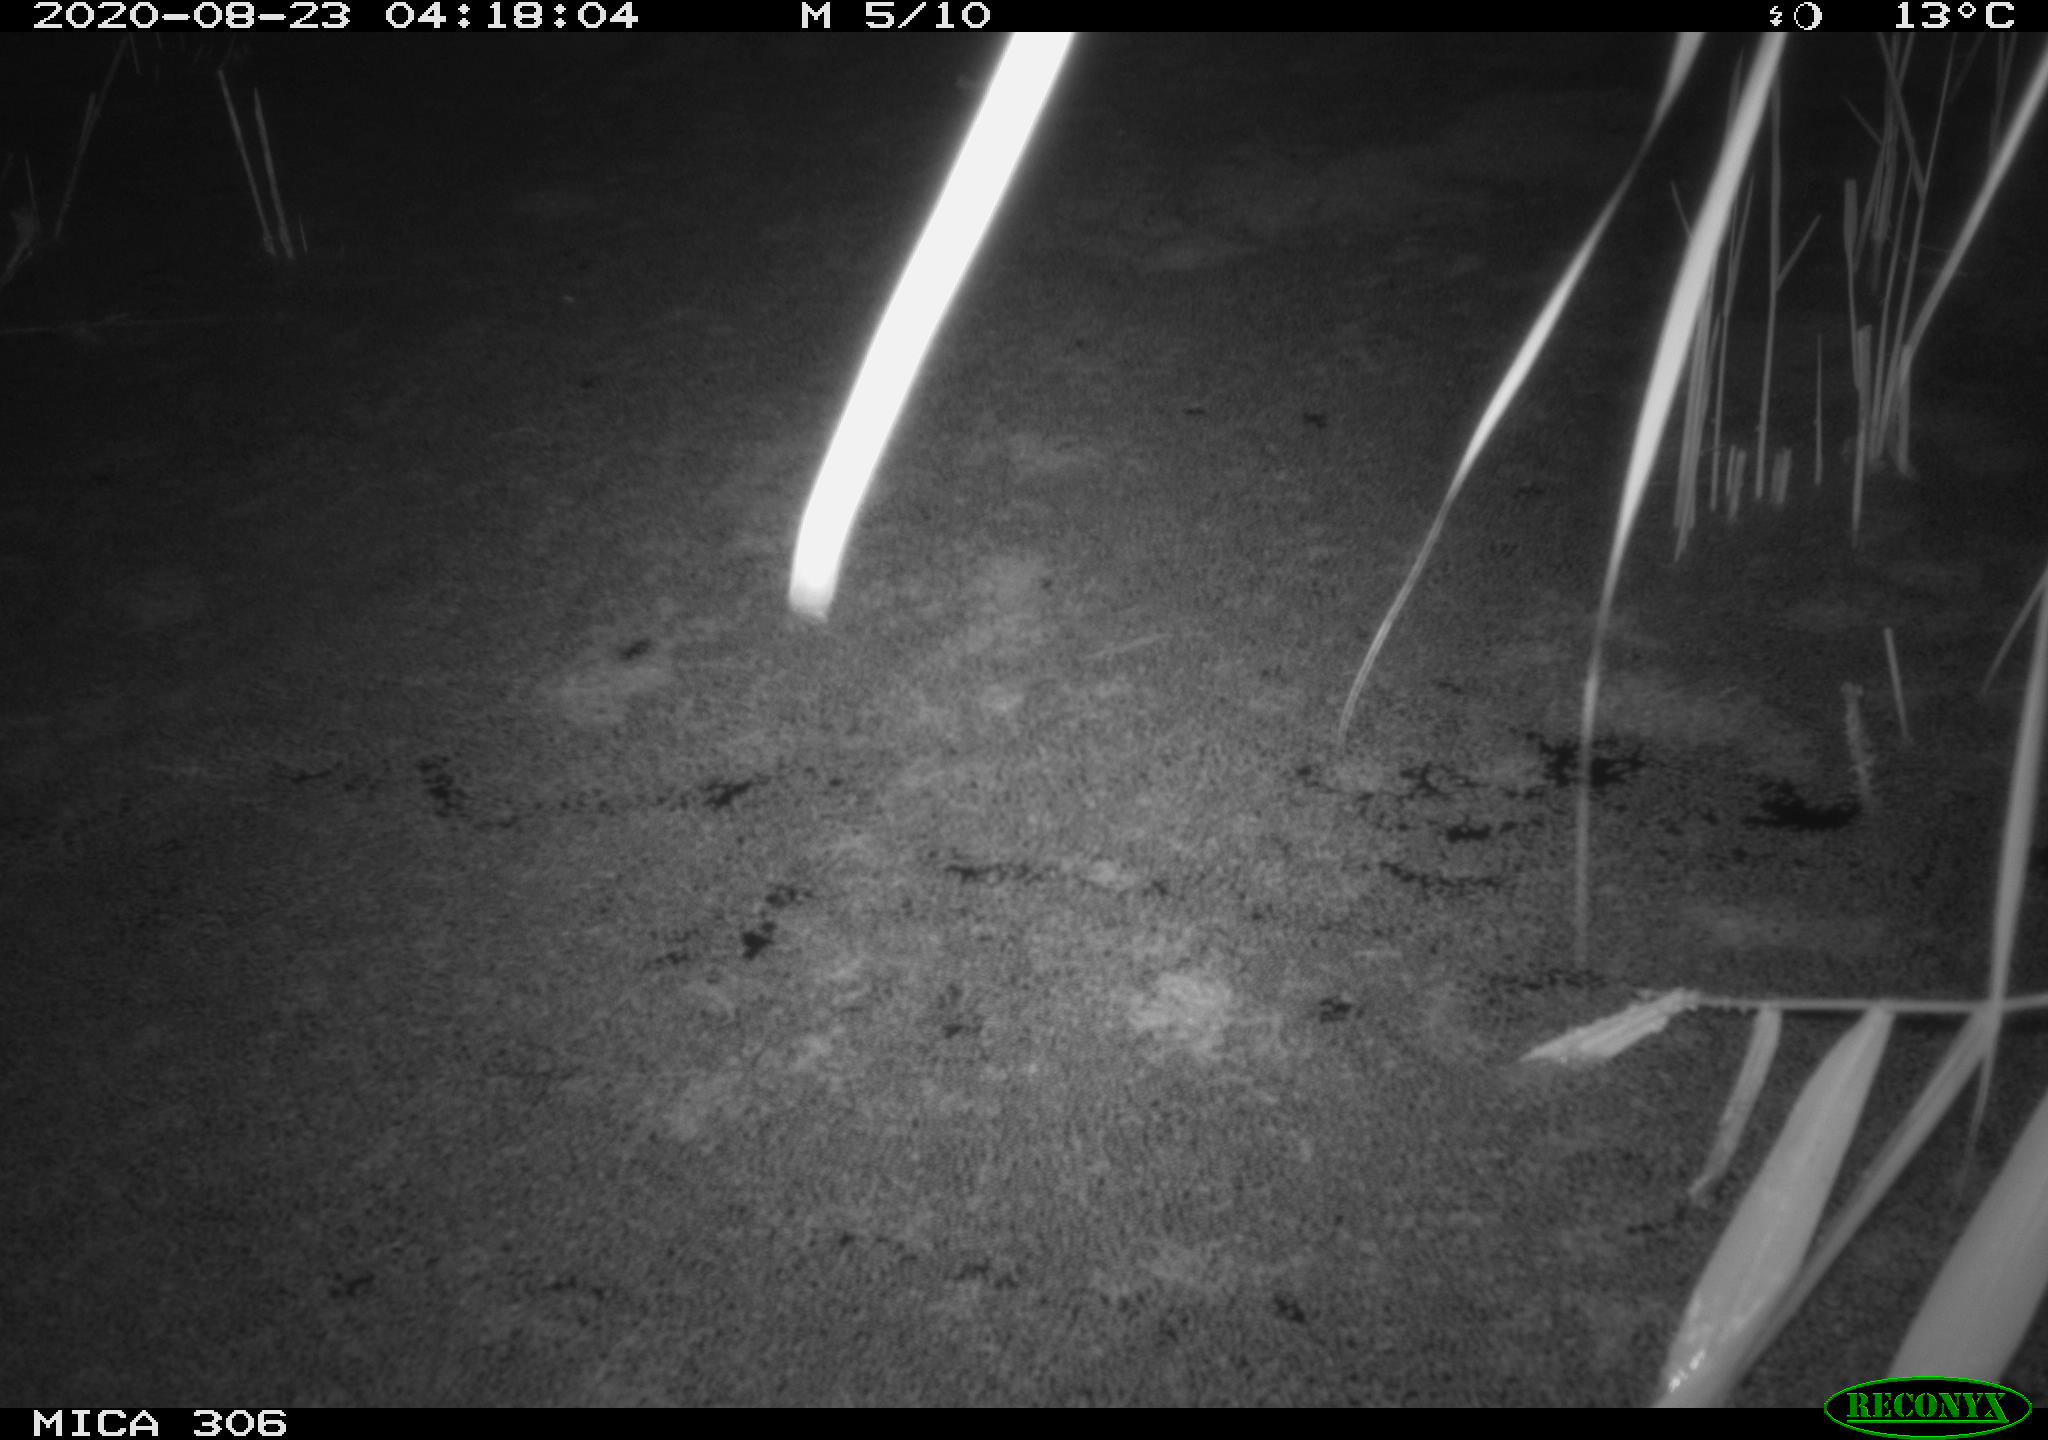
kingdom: Animalia
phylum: Chordata
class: Mammalia
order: Rodentia
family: Muridae
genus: Rattus
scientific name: Rattus norvegicus
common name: Brown rat
